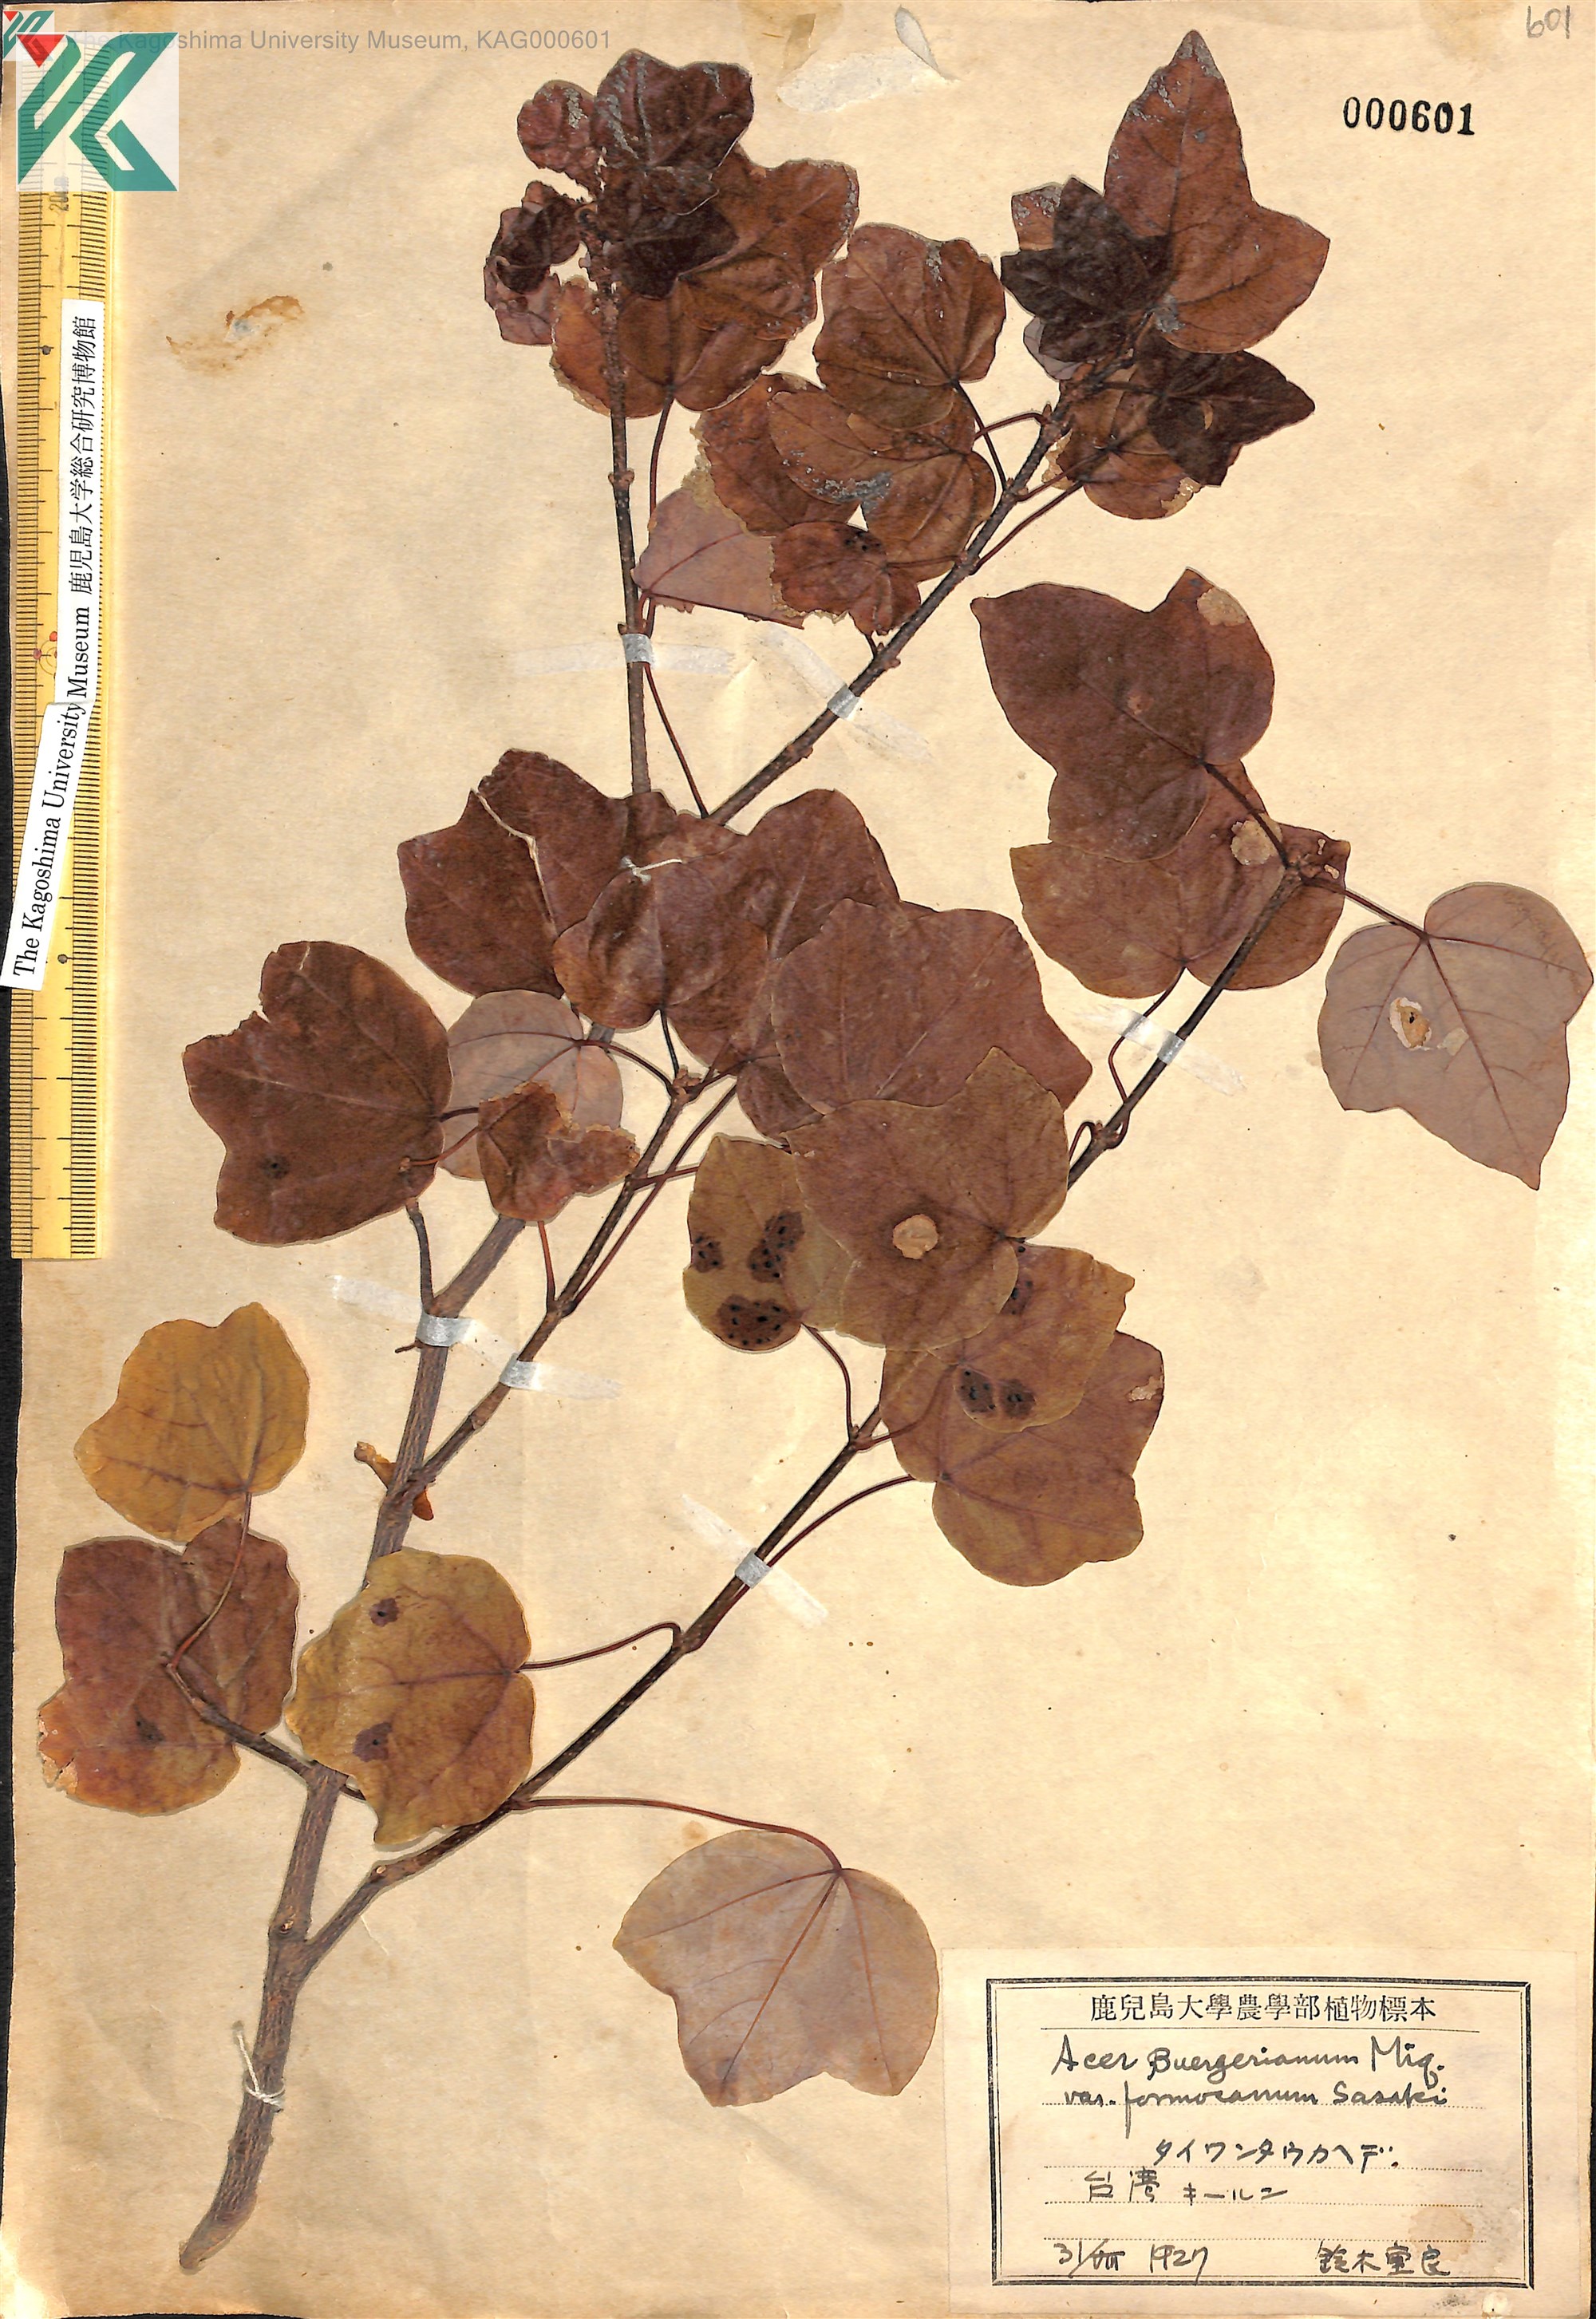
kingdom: Plantae
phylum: Tracheophyta
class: Magnoliopsida
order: Sapindales
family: Sapindaceae
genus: Acer
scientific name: Acer buergerianum
